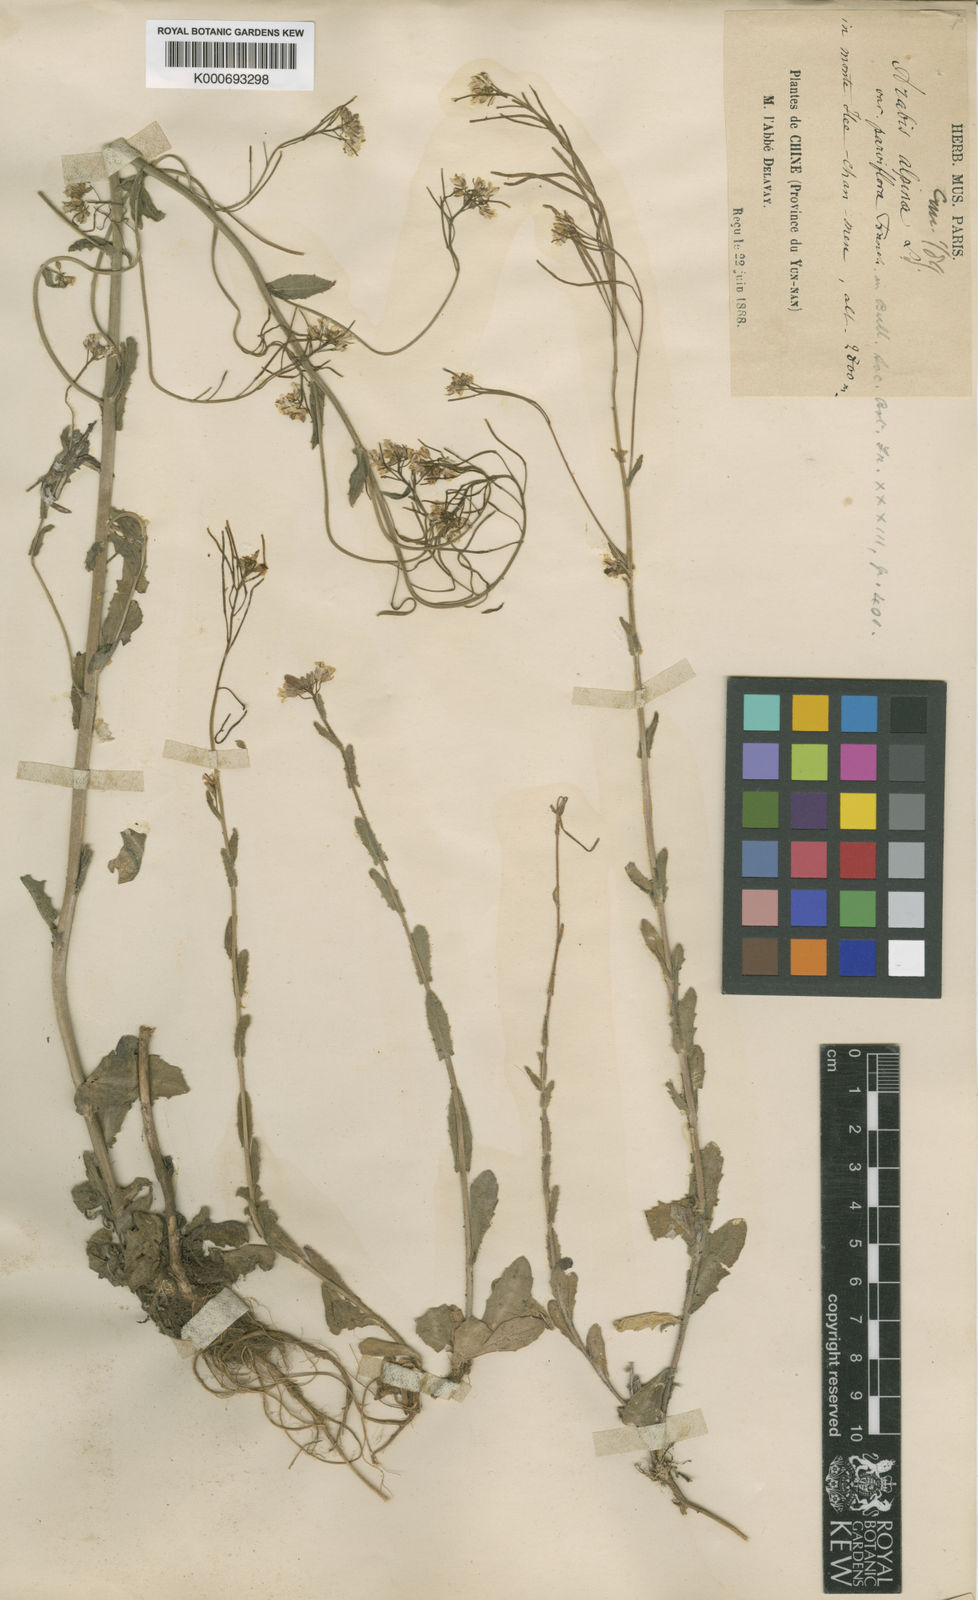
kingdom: Plantae
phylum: Tracheophyta
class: Magnoliopsida
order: Brassicales
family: Brassicaceae
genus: Arabis
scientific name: Arabis alpina
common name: Alpine rock-cress
